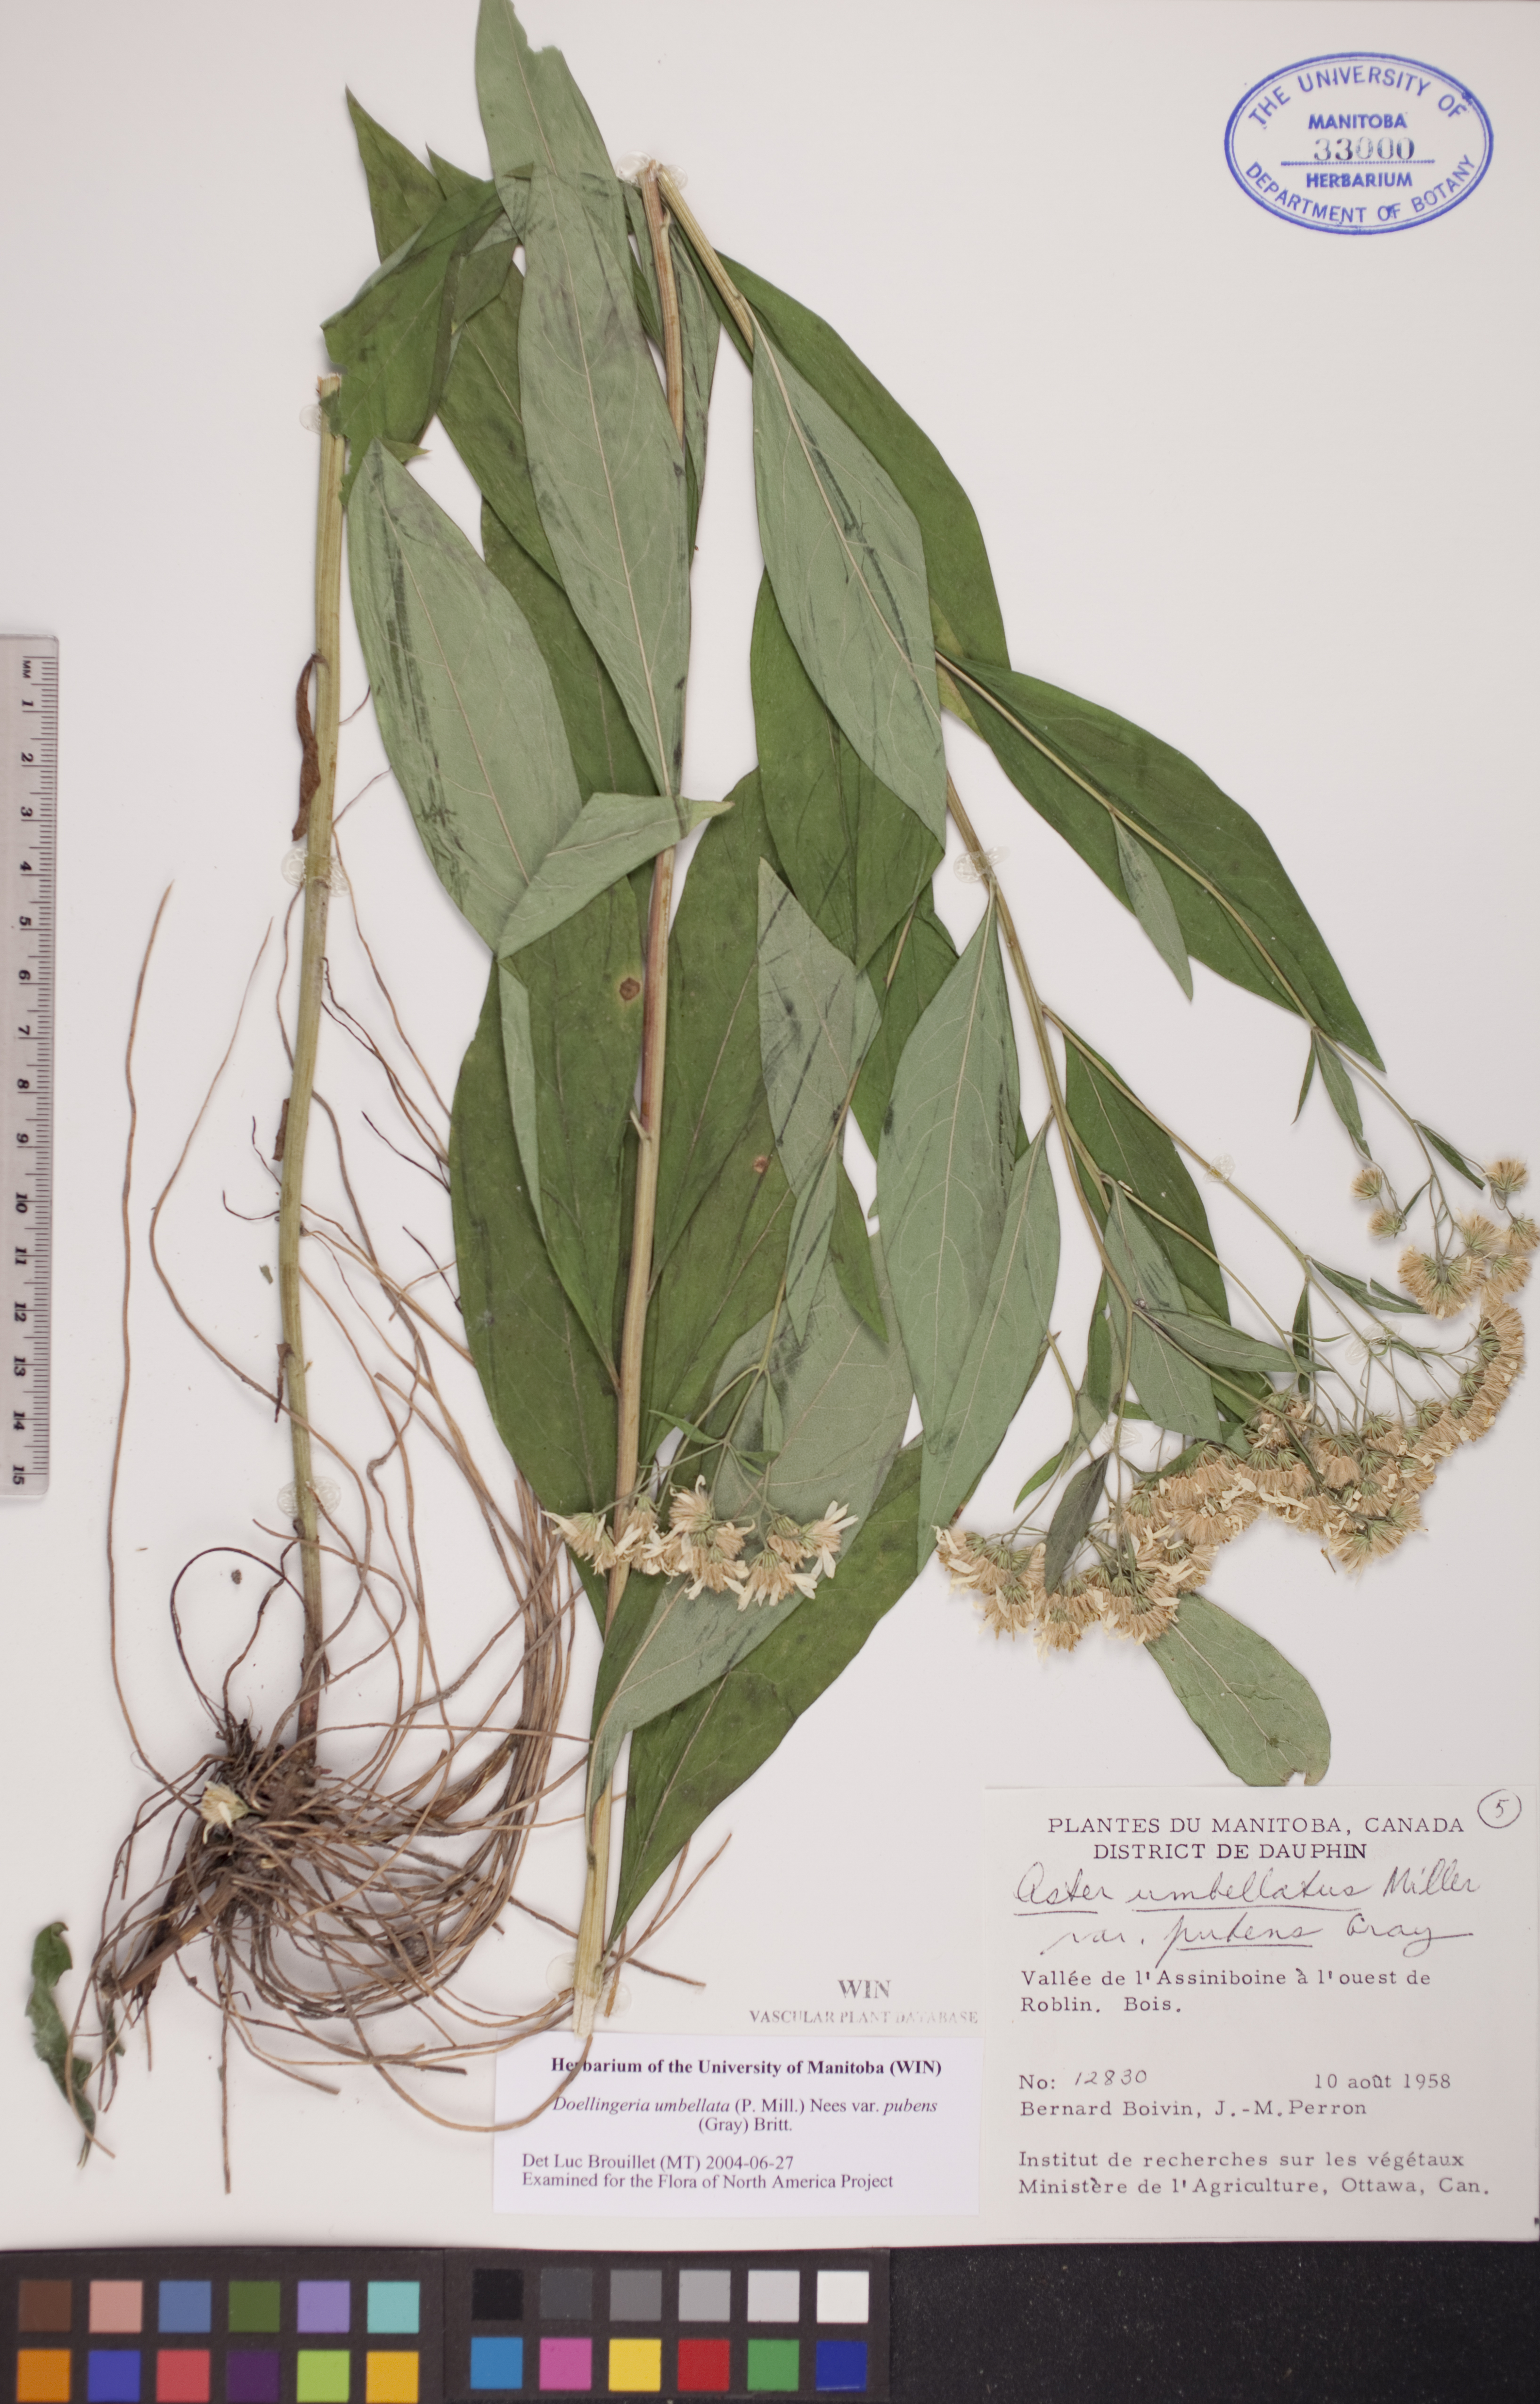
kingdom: Plantae
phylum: Tracheophyta
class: Magnoliopsida
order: Asterales
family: Asteraceae
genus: Doellingeria
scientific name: Doellingeria umbellata
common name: Flat-top white aster
